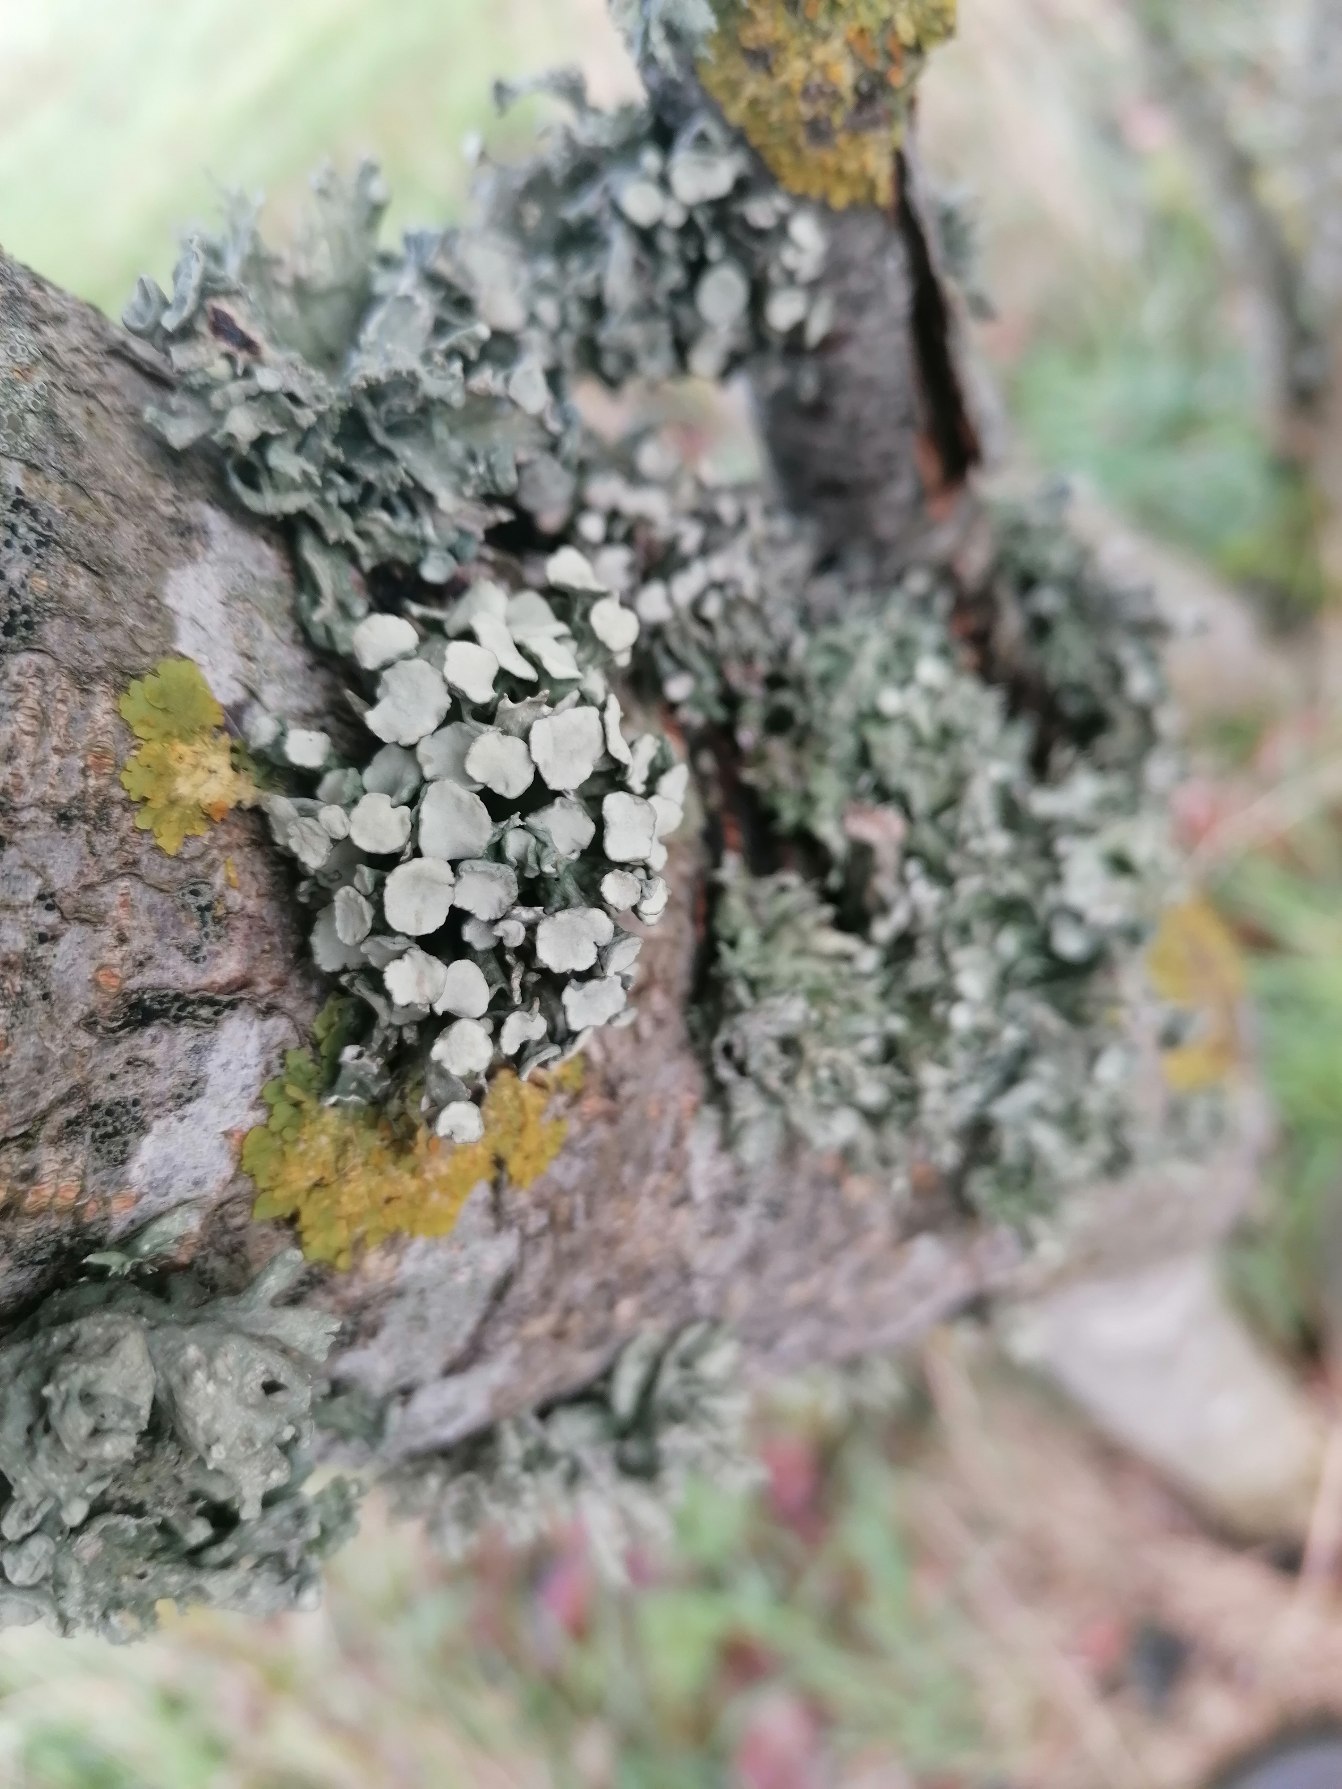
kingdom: Fungi
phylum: Ascomycota
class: Lecanoromycetes
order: Lecanorales
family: Ramalinaceae
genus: Ramalina
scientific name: Ramalina fastigiata
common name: Tue-grenlav
